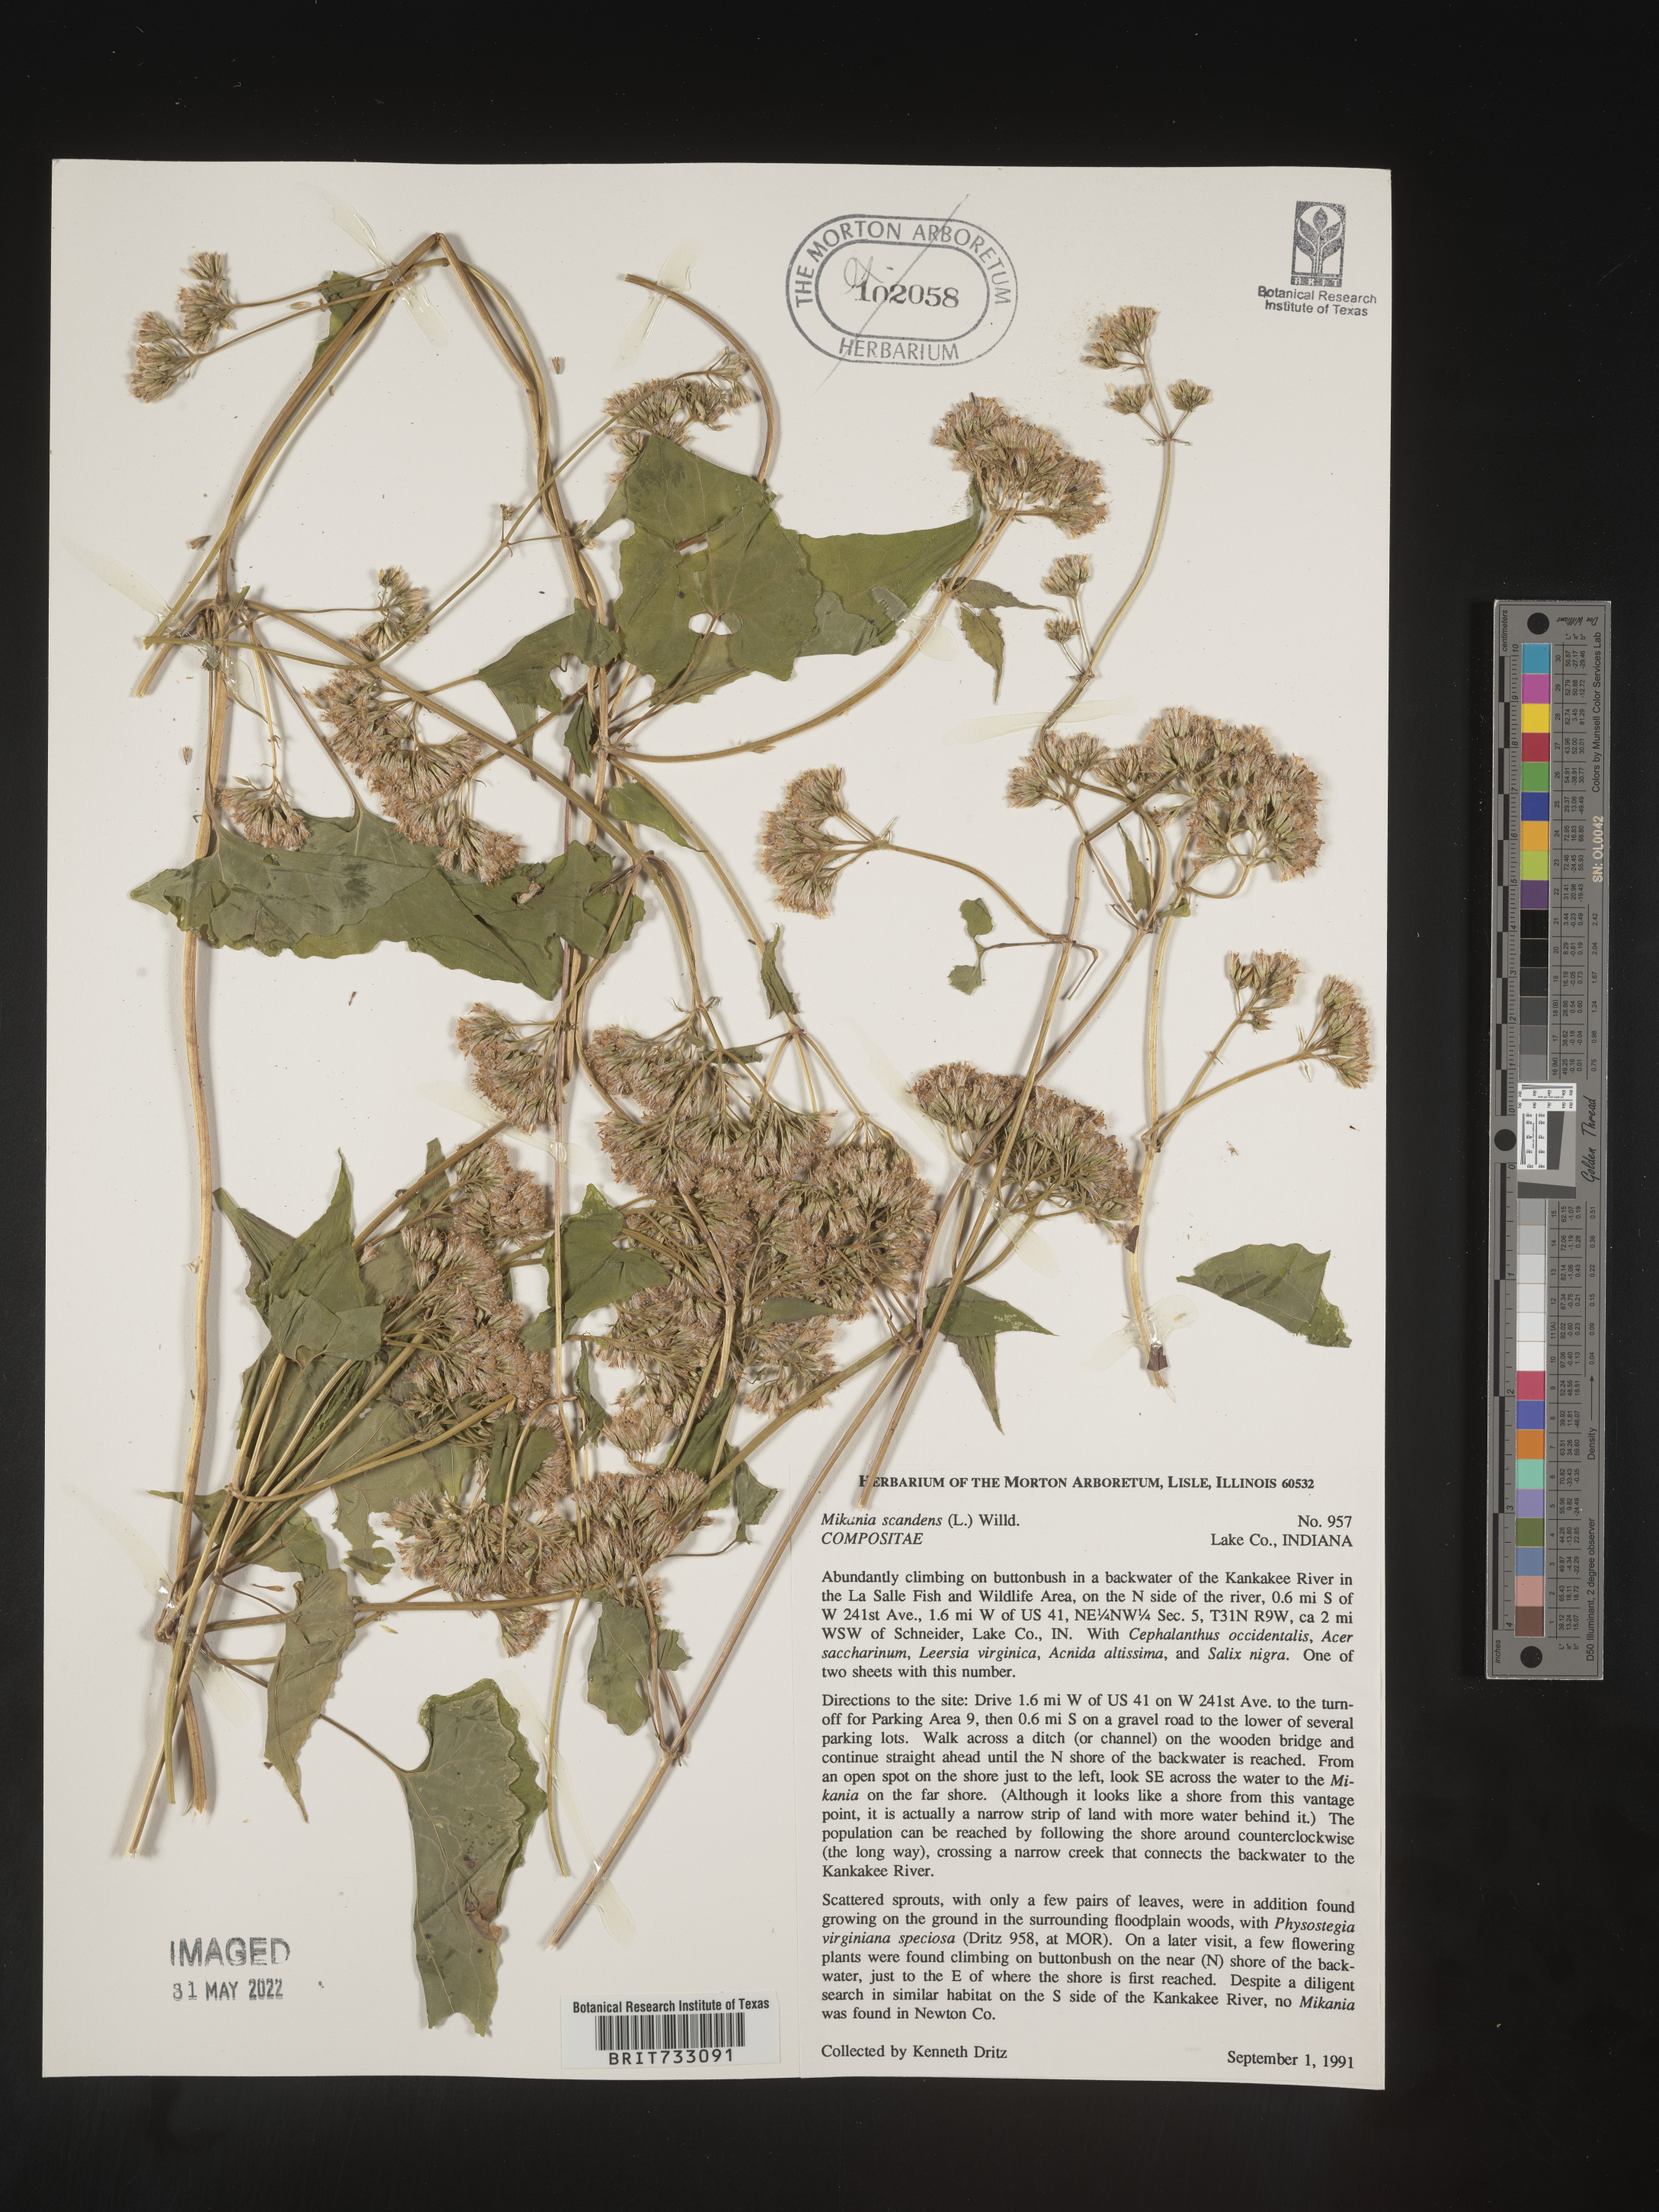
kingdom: Plantae
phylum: Tracheophyta
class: Magnoliopsida
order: Asterales
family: Asteraceae
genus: Mikania
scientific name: Mikania scandens
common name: Climbing hempvine
